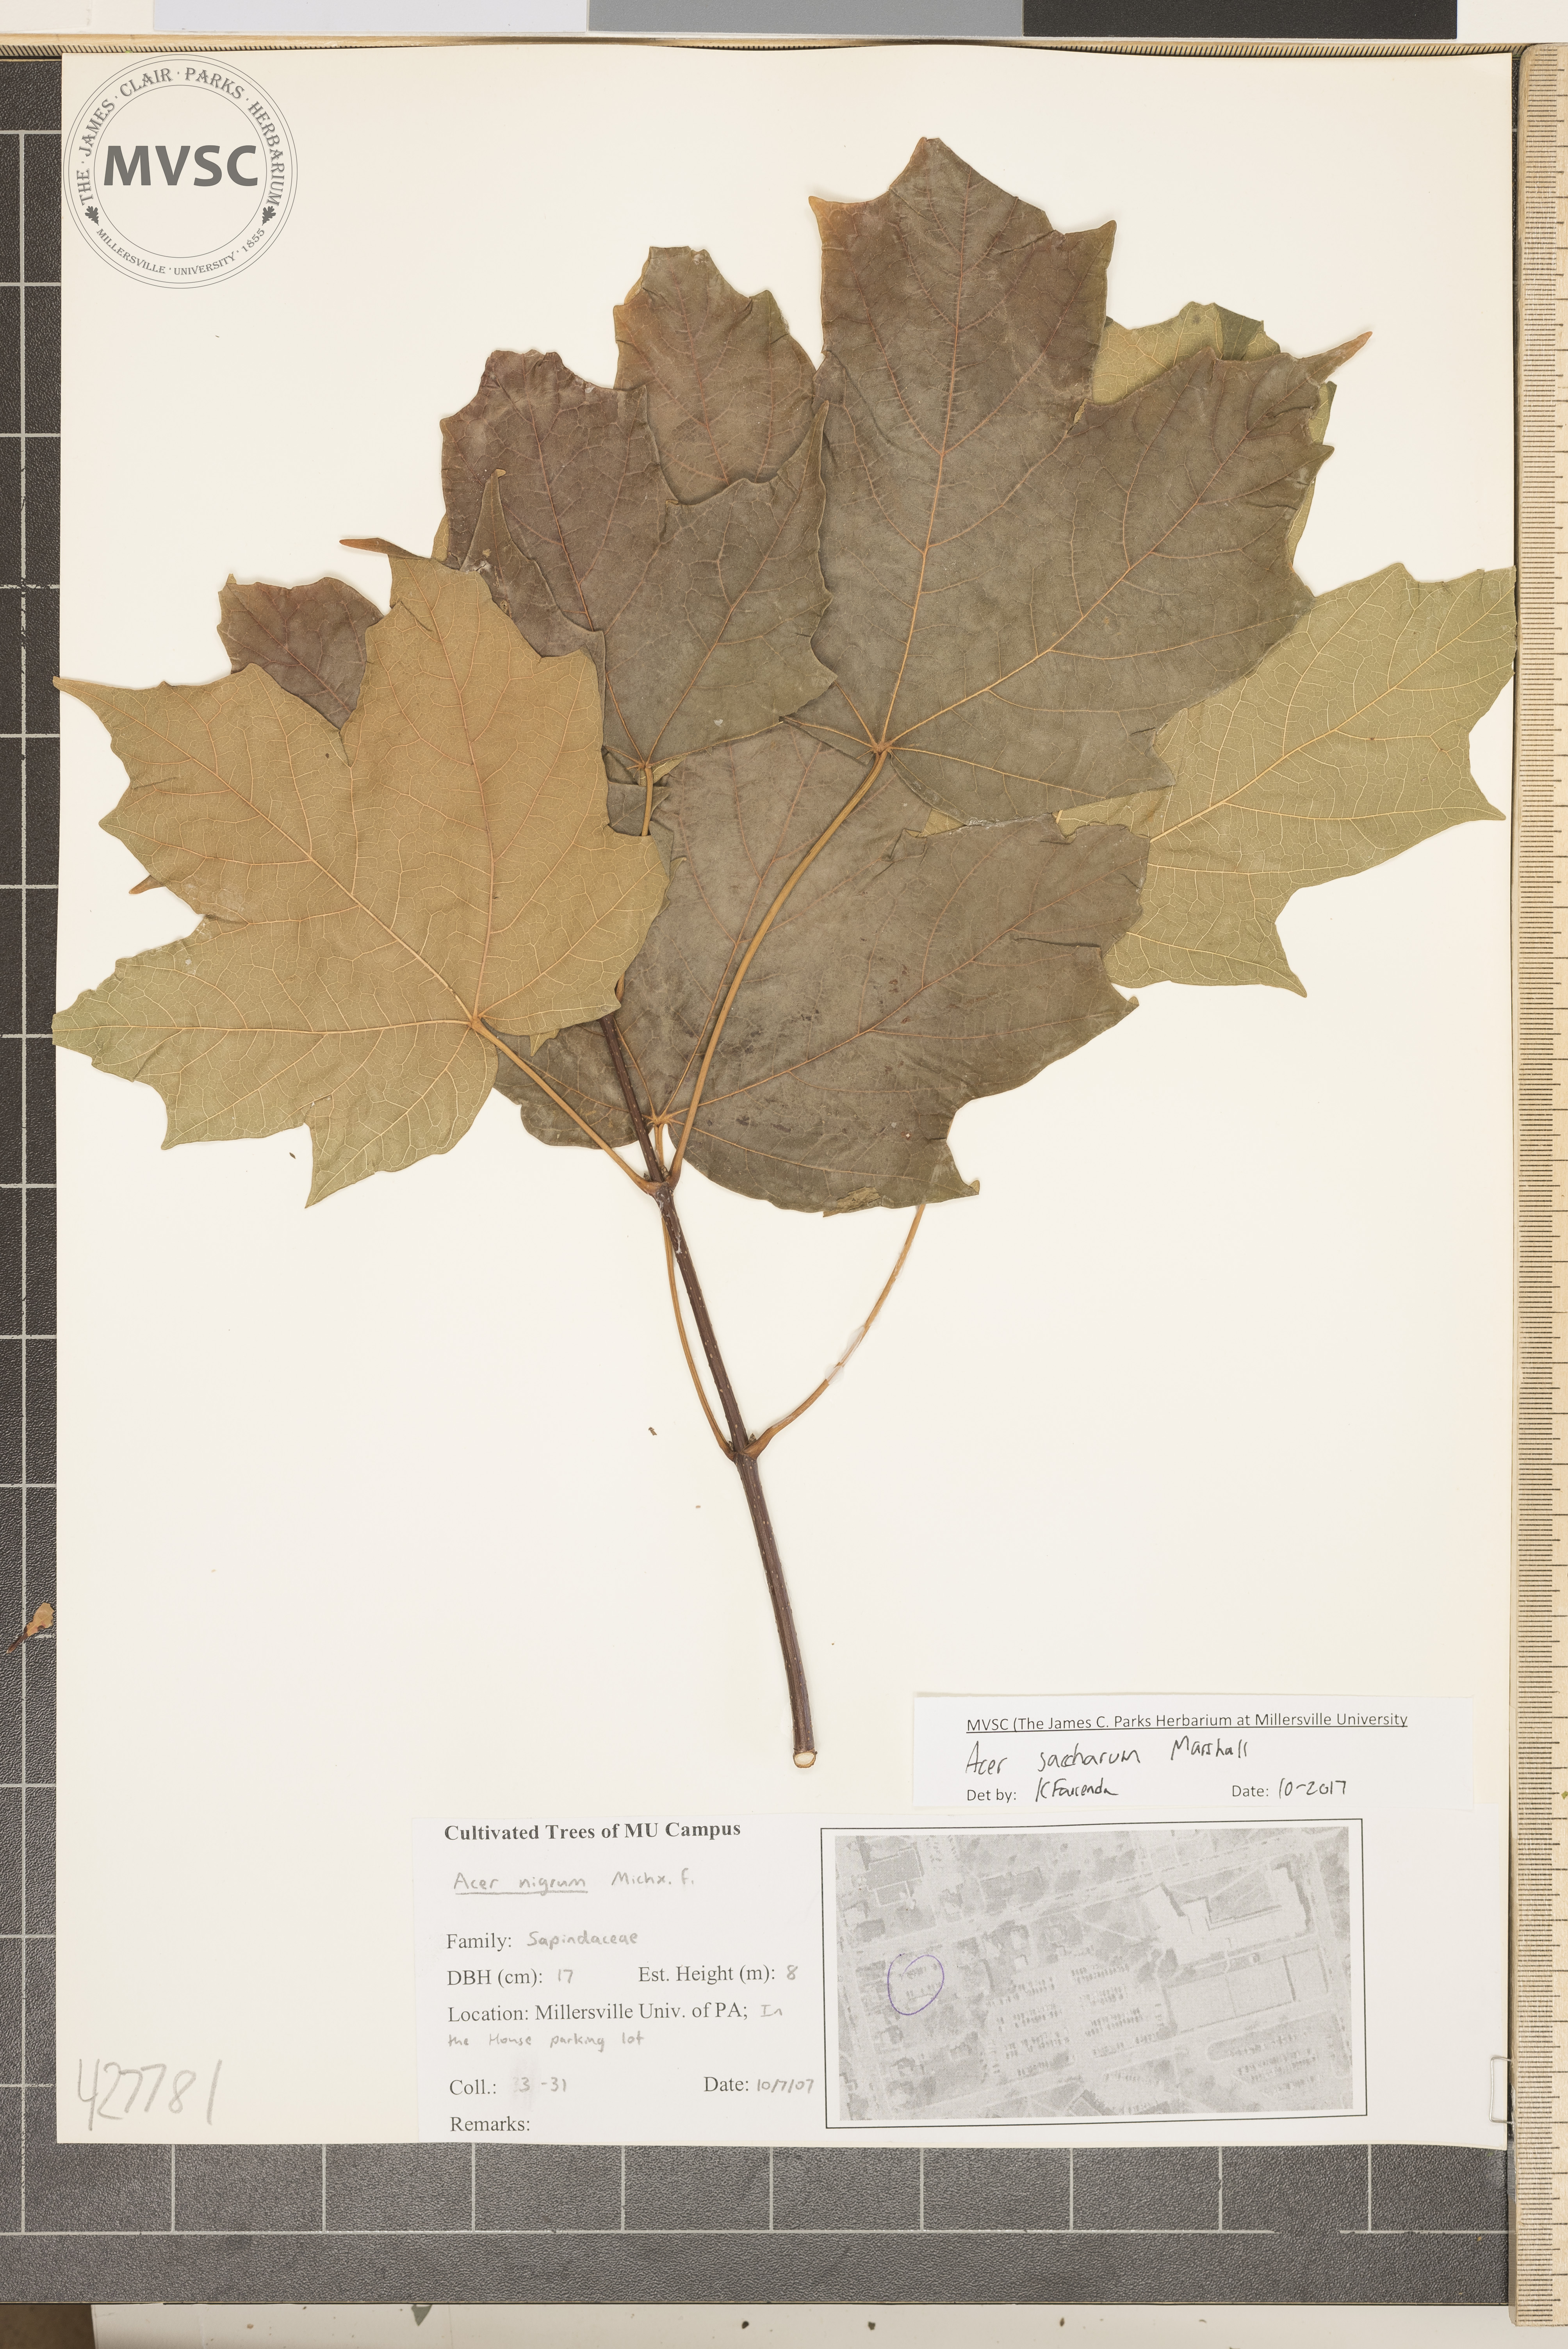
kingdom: Plantae
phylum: Tracheophyta
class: Magnoliopsida
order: Sapindales
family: Sapindaceae
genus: Acer
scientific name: Acer saccharum
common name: Sugar maple
